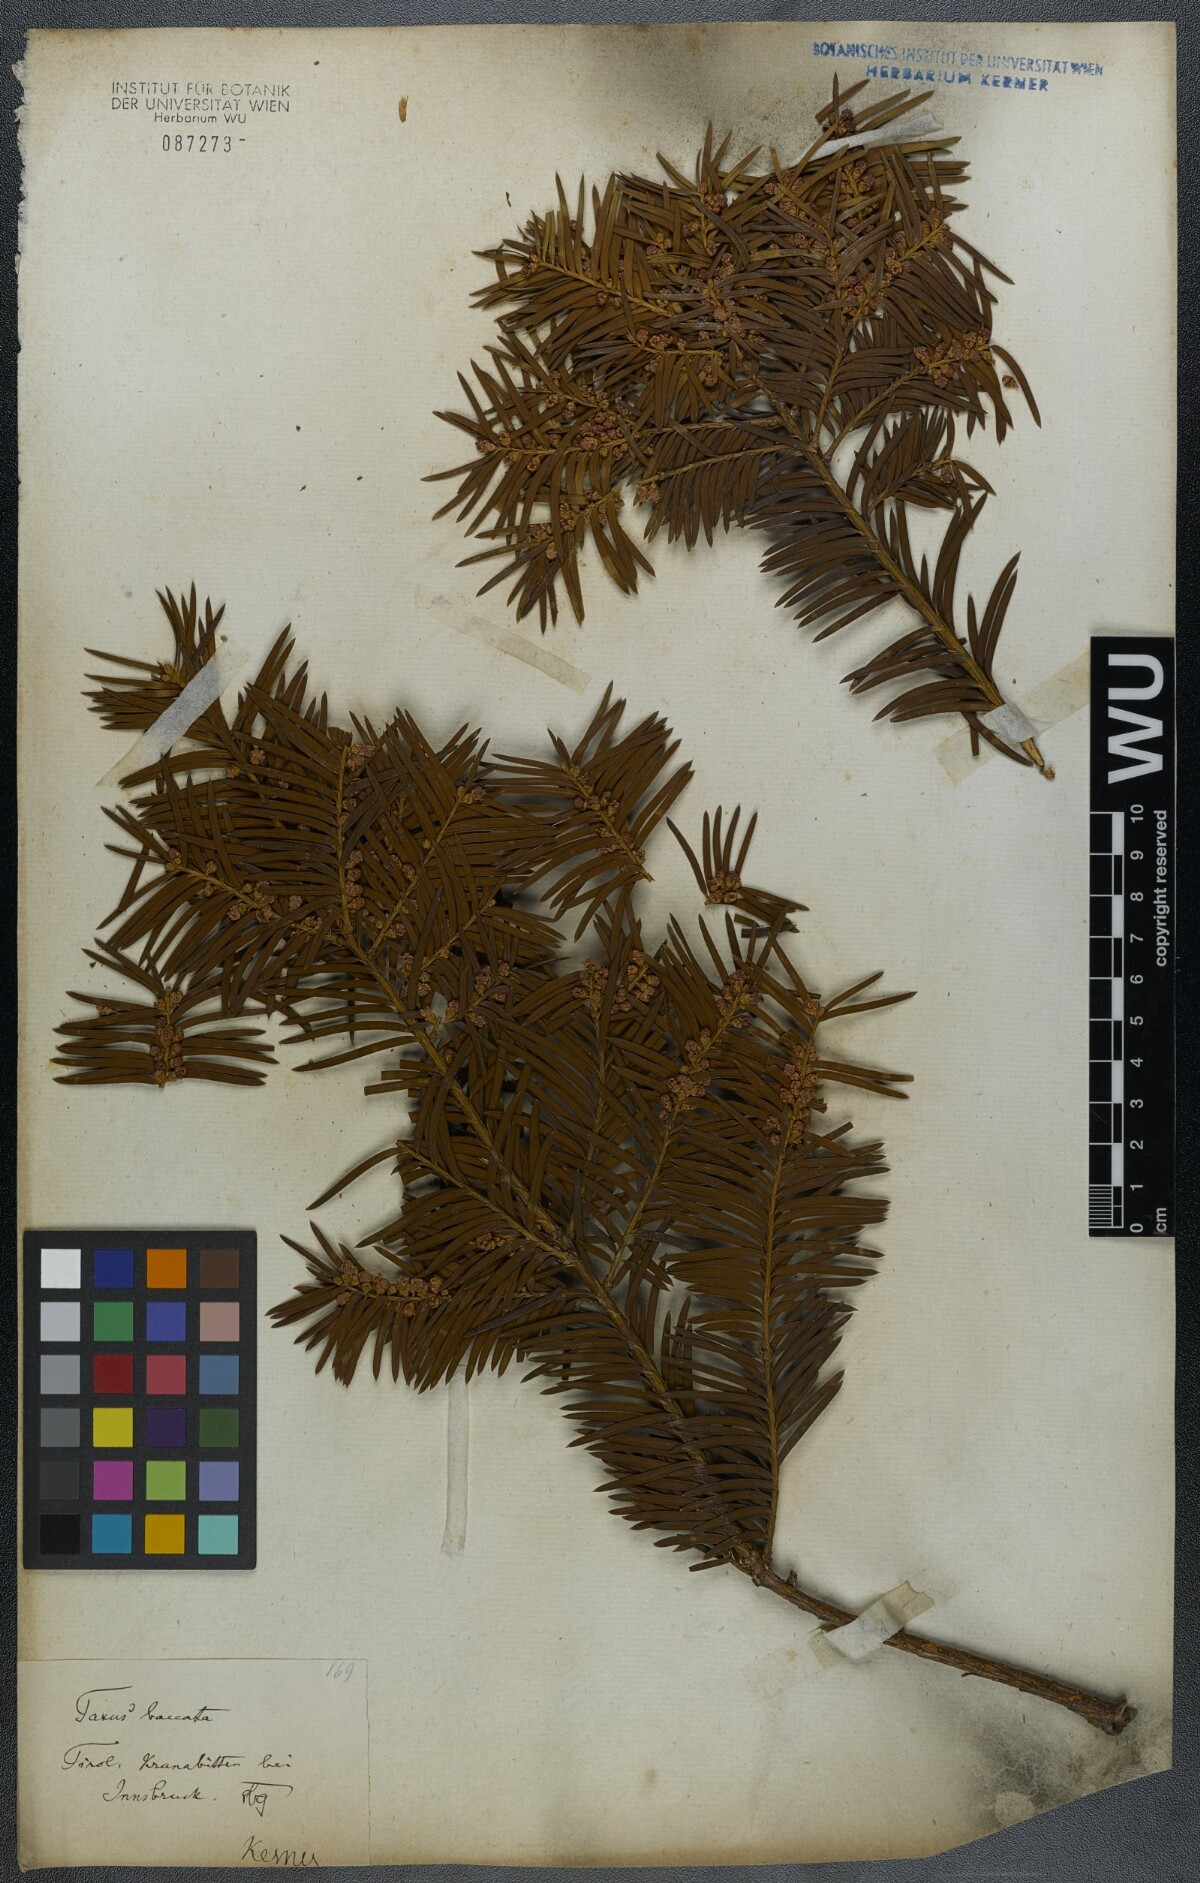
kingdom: Plantae
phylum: Tracheophyta
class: Pinopsida
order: Pinales
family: Taxaceae
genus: Taxus
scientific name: Taxus baccata
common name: Yew
